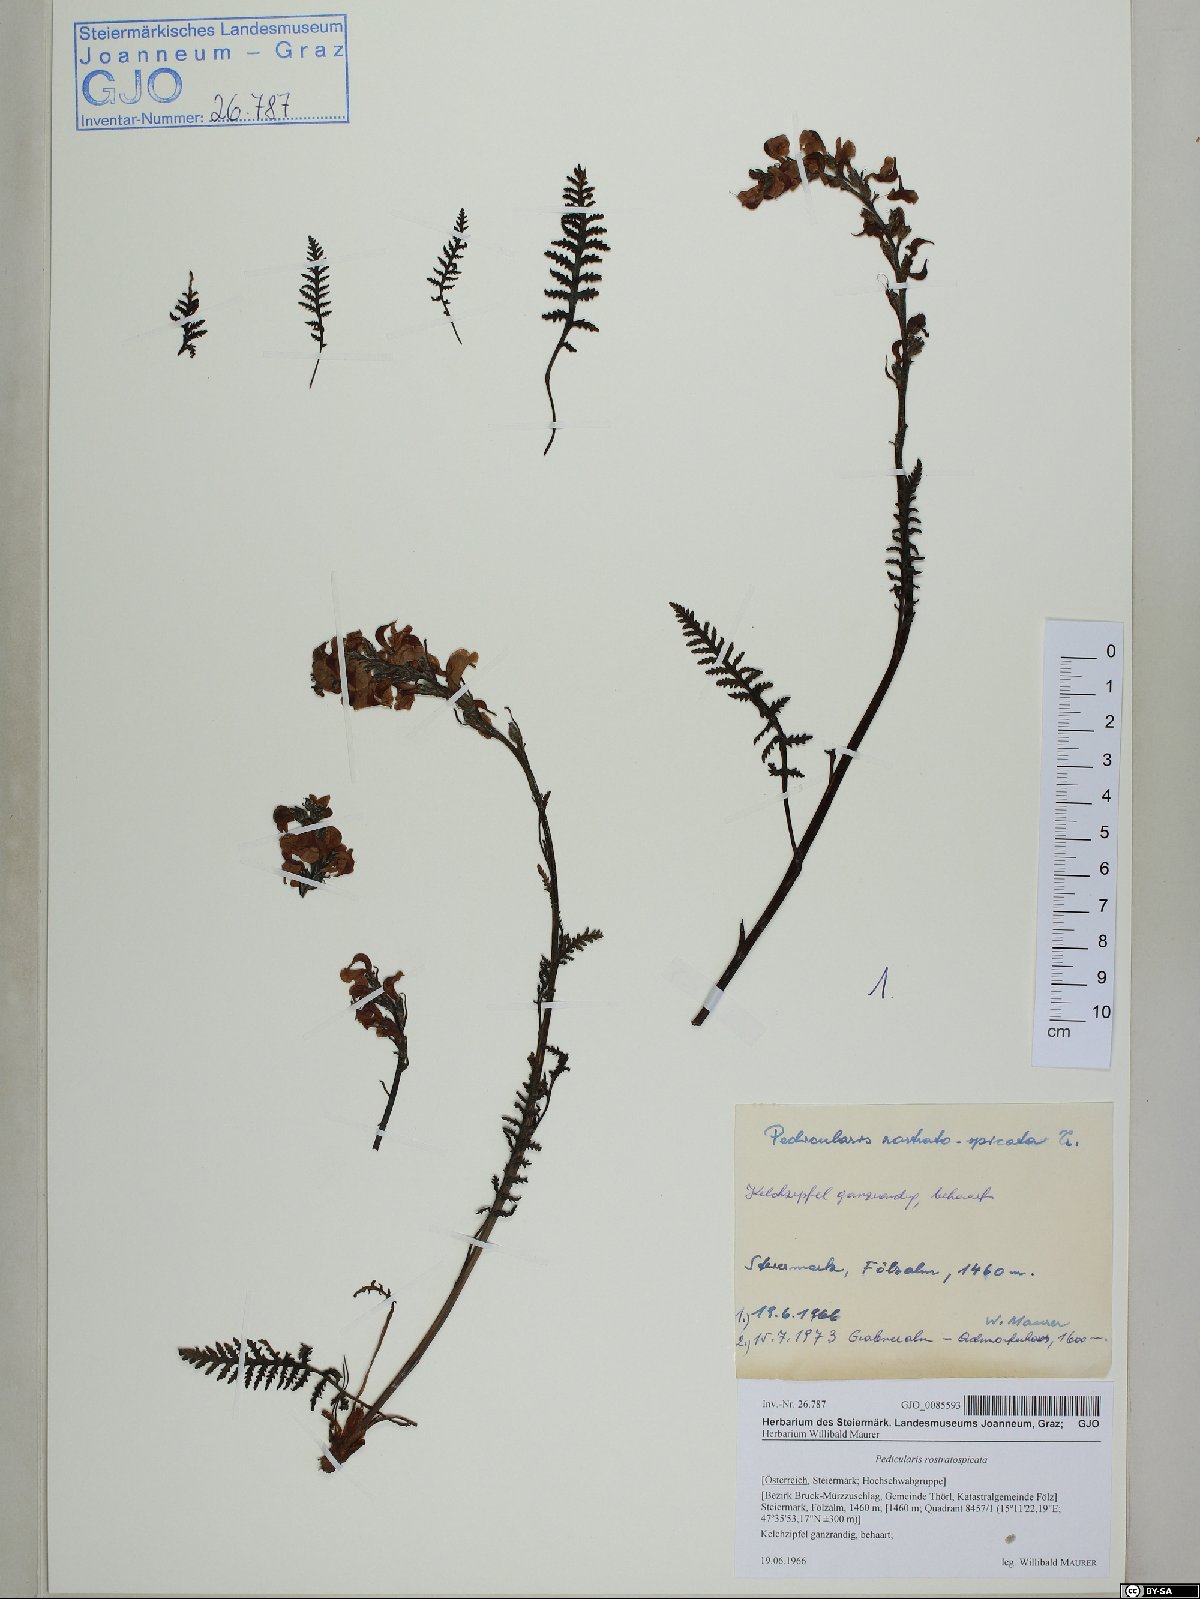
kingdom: Plantae
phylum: Tracheophyta
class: Magnoliopsida
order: Lamiales
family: Orobanchaceae
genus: Pedicularis
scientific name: Pedicularis rostratospicata
